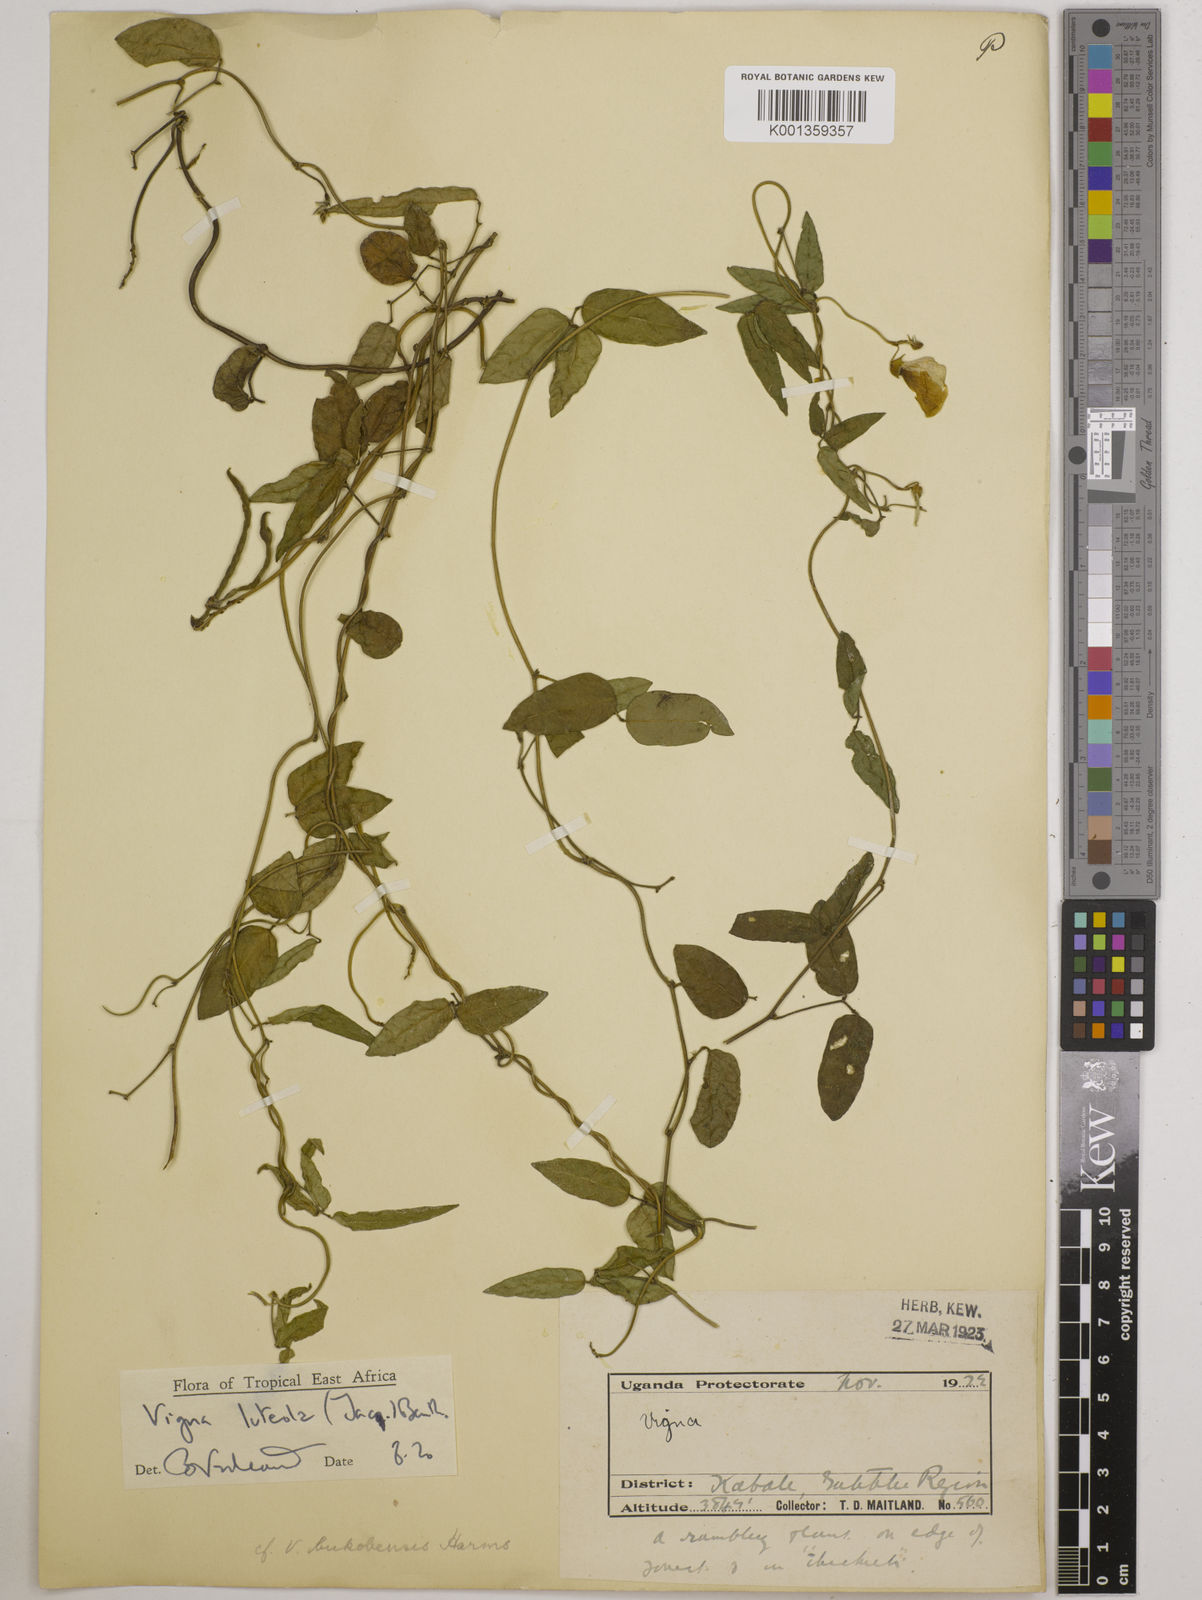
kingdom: Plantae
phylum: Tracheophyta
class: Magnoliopsida
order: Fabales
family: Fabaceae
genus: Vigna
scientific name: Vigna luteola
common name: Hairypod cowpea
